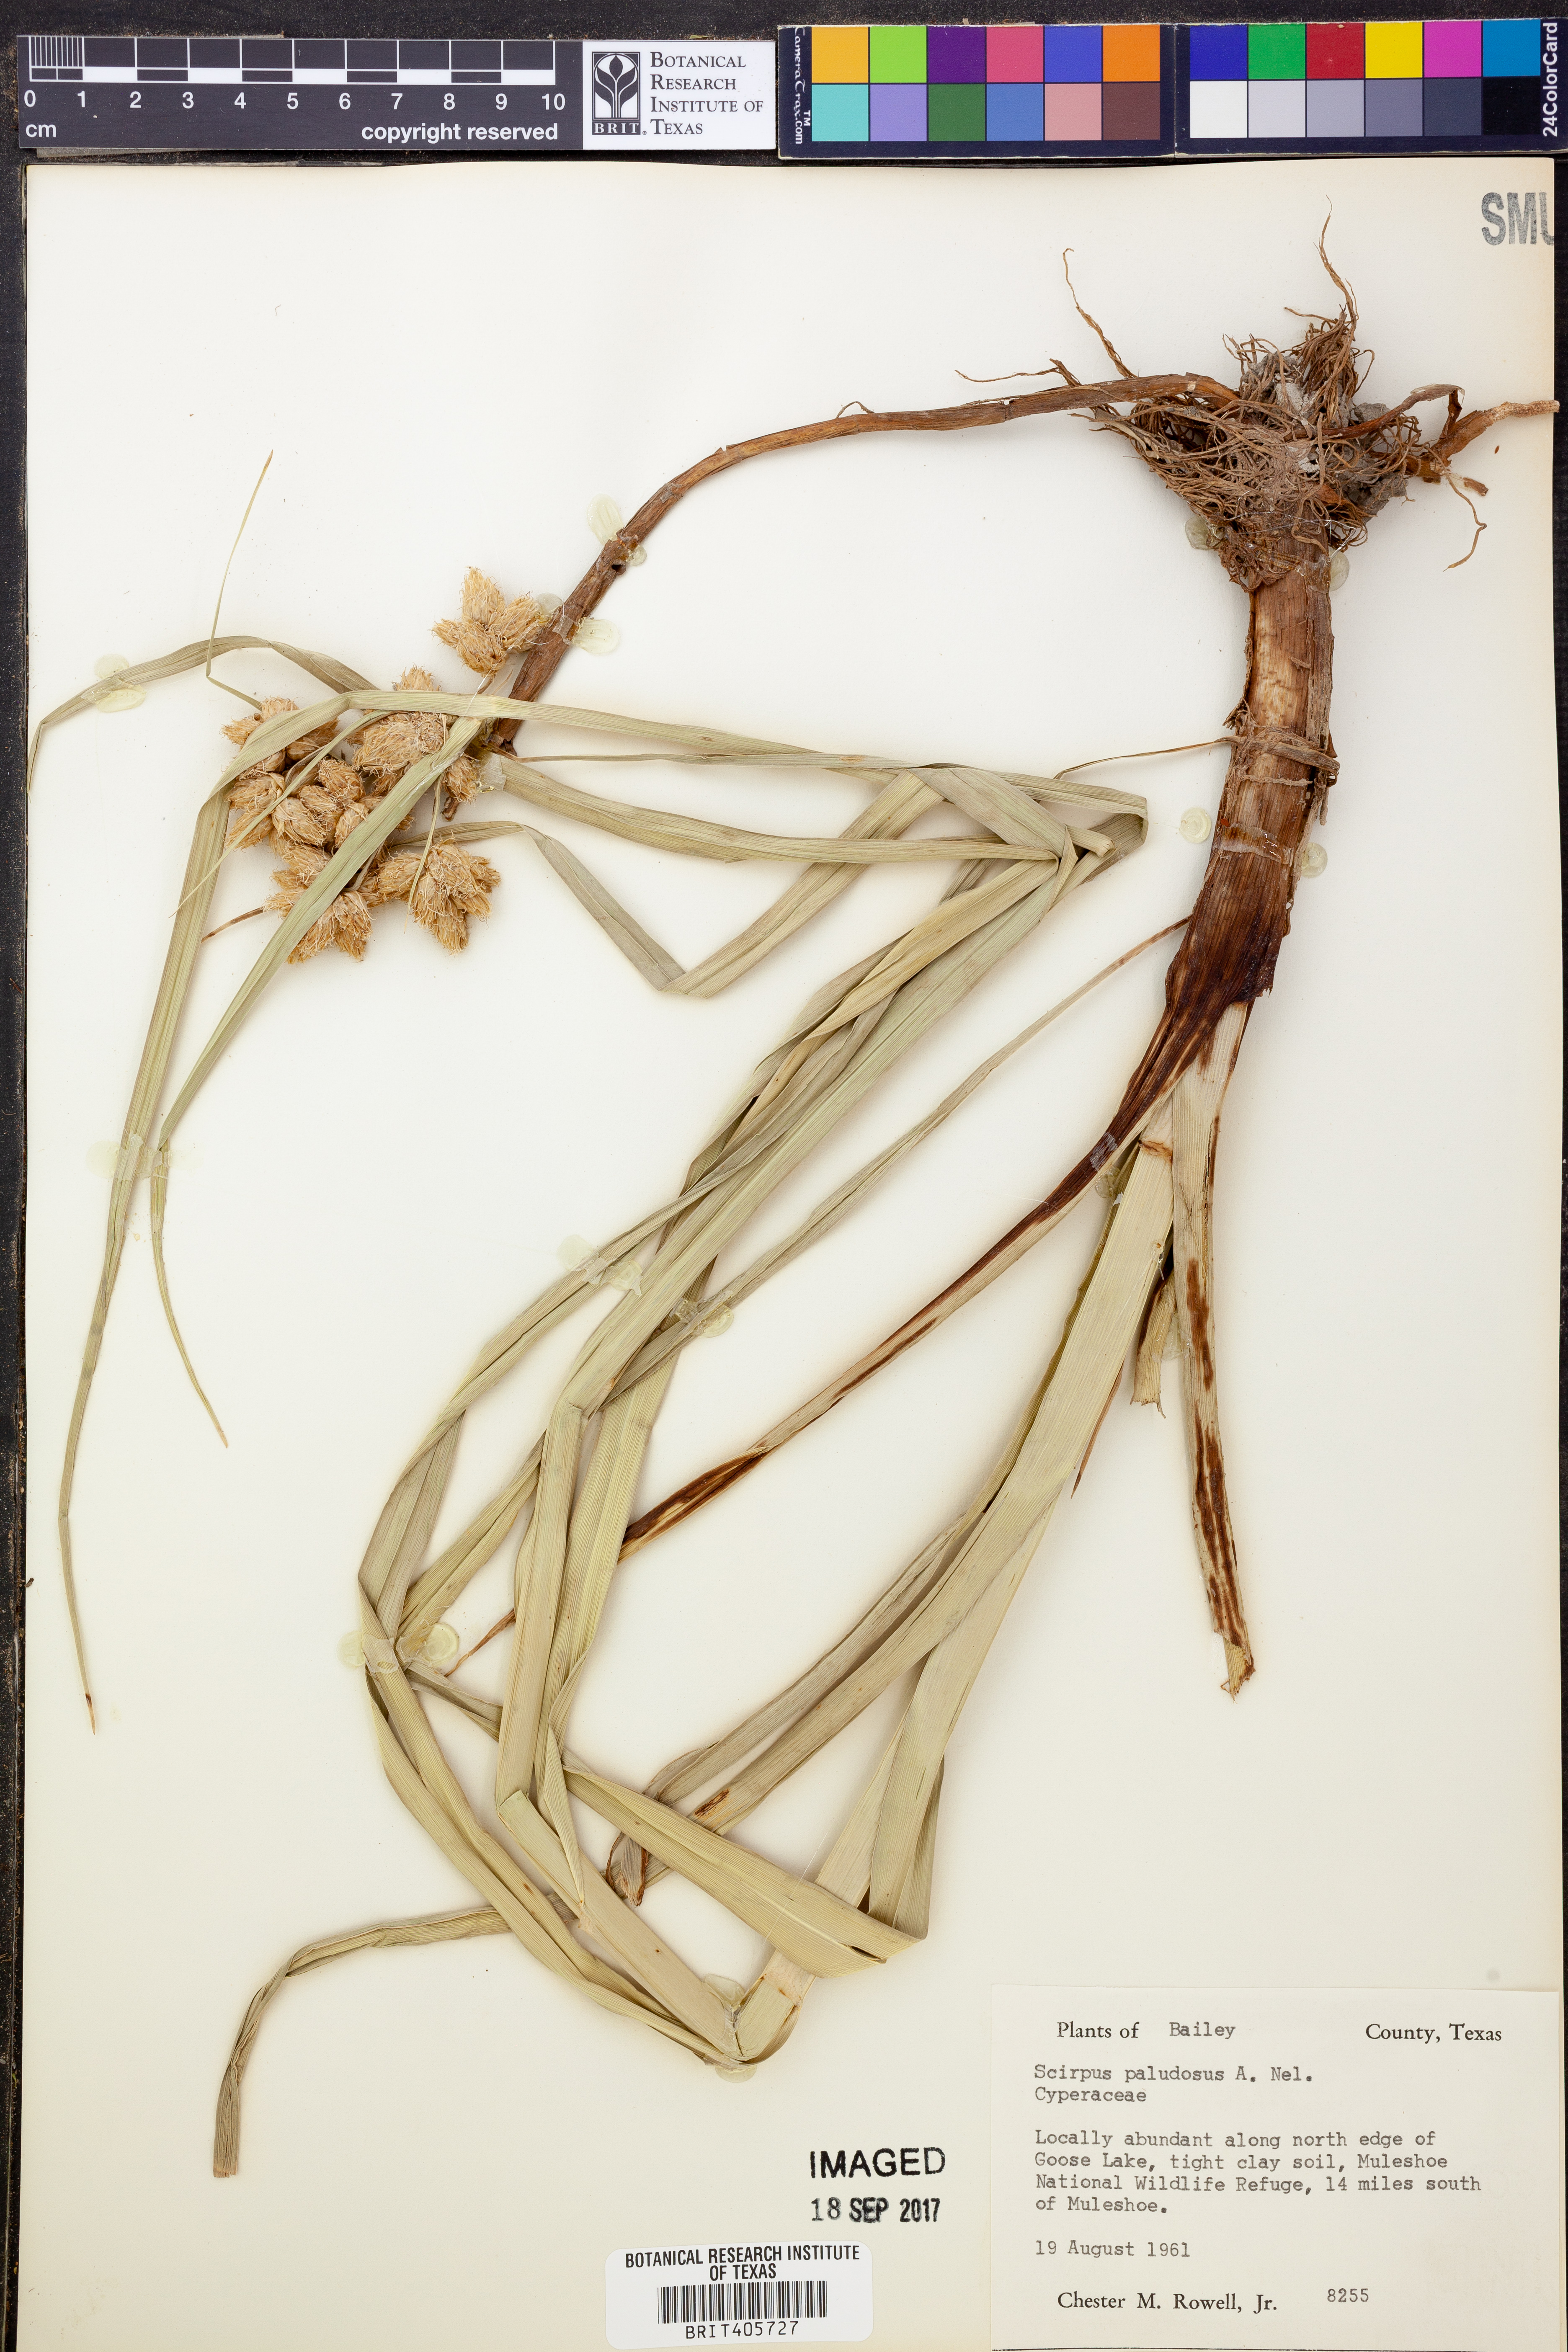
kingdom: Plantae
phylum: Tracheophyta
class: Liliopsida
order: Poales
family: Cyperaceae
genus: Bolboschoenus
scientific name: Bolboschoenus maritimus
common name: Sea club-rush
